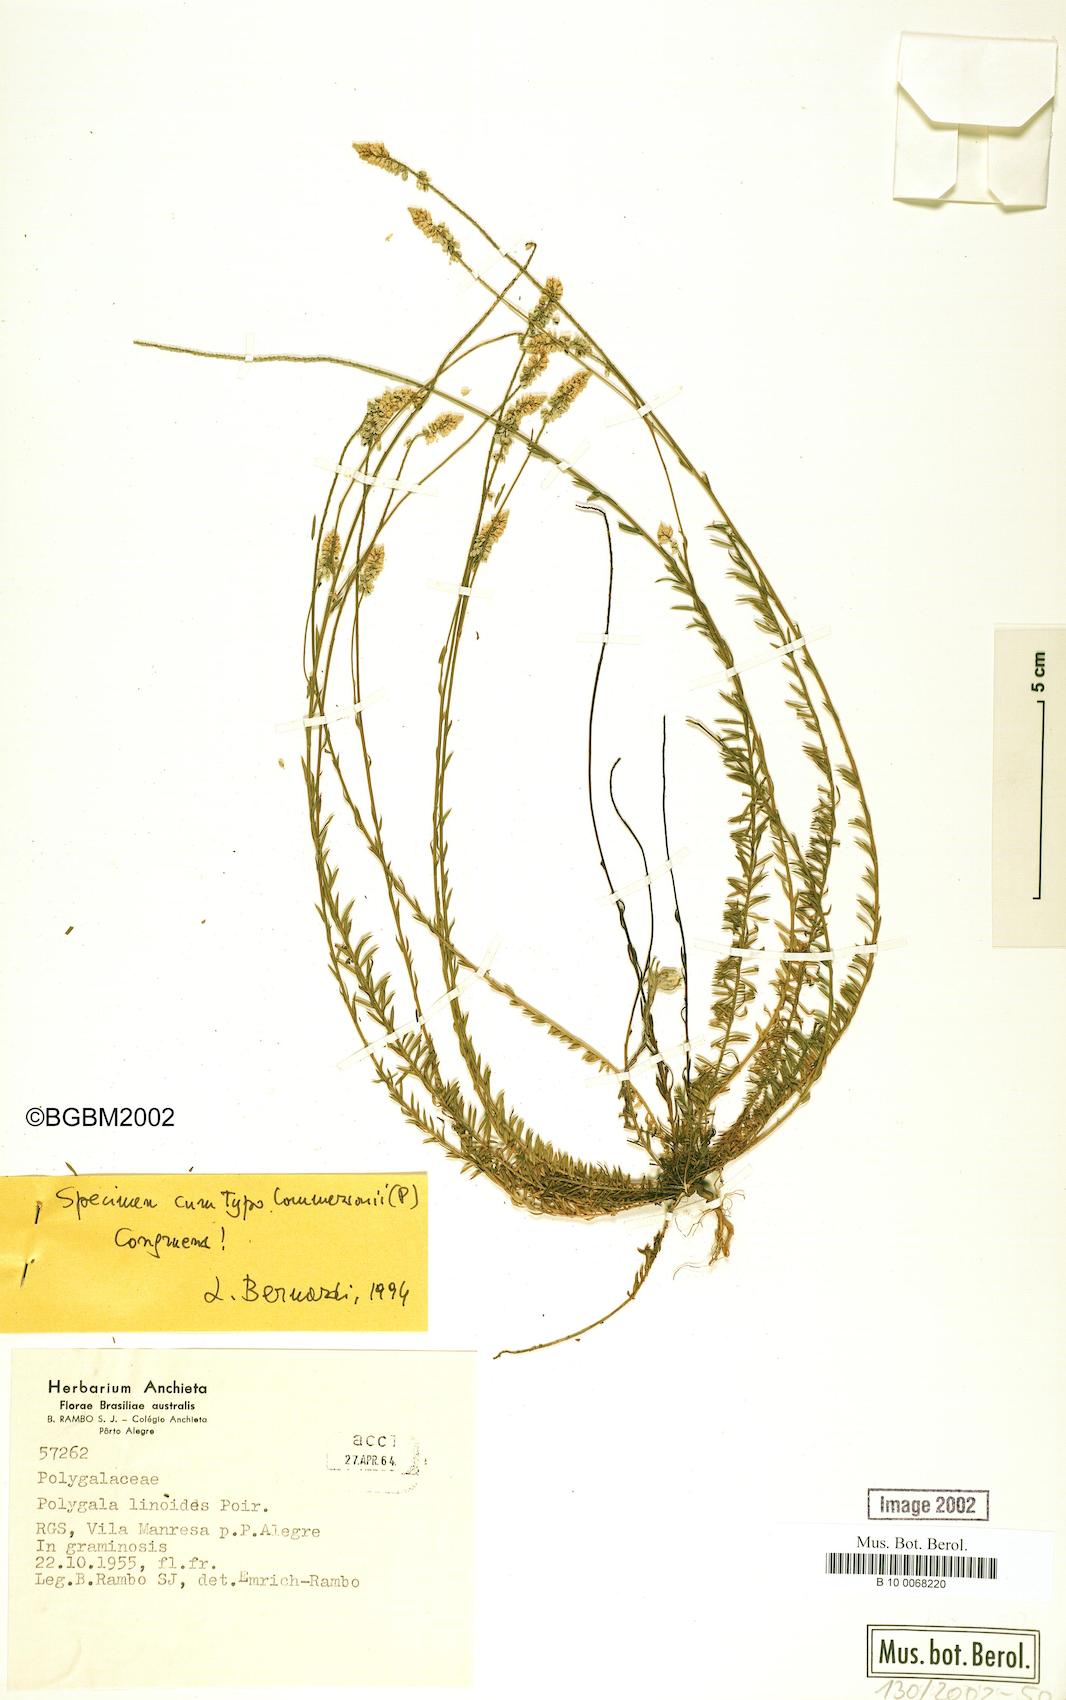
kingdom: Plantae
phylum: Tracheophyta
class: Magnoliopsida
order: Fabales
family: Polygalaceae
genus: Polygala
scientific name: Polygala linoides
